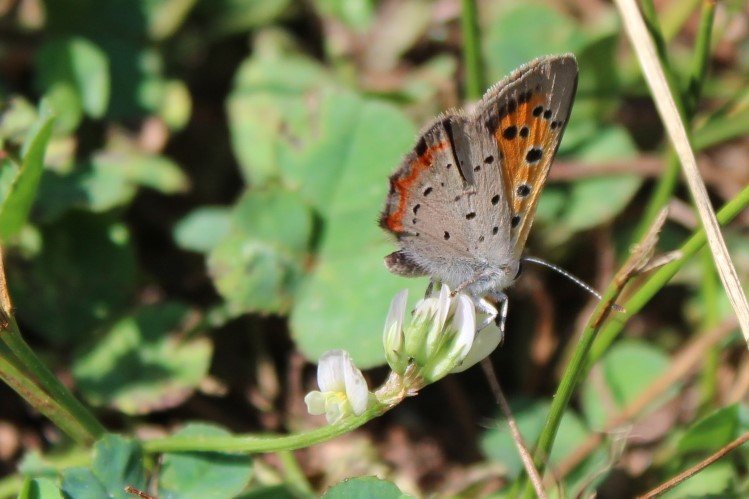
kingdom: Animalia
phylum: Arthropoda
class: Insecta
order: Lepidoptera
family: Lycaenidae
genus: Lycaena
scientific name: Lycaena phlaeas
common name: American Copper
